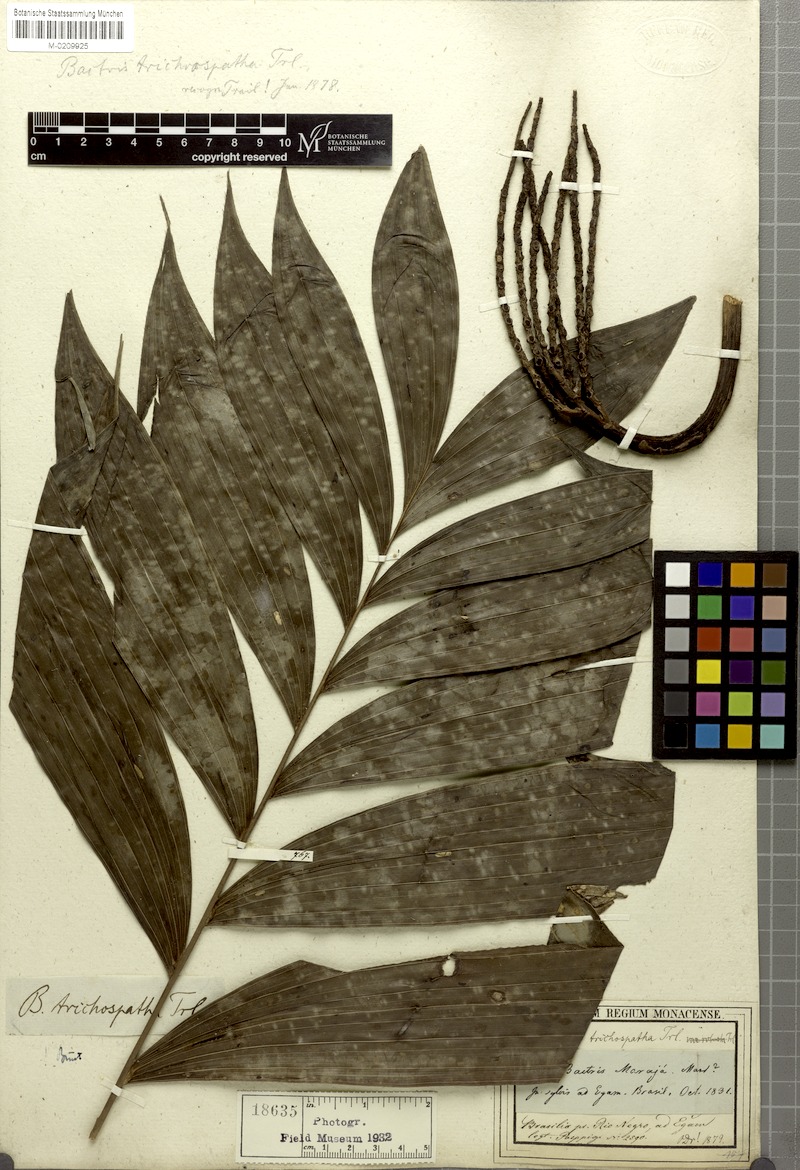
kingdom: Plantae
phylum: Tracheophyta
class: Liliopsida
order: Arecales
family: Arecaceae
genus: Bactris
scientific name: Bactris maraja
